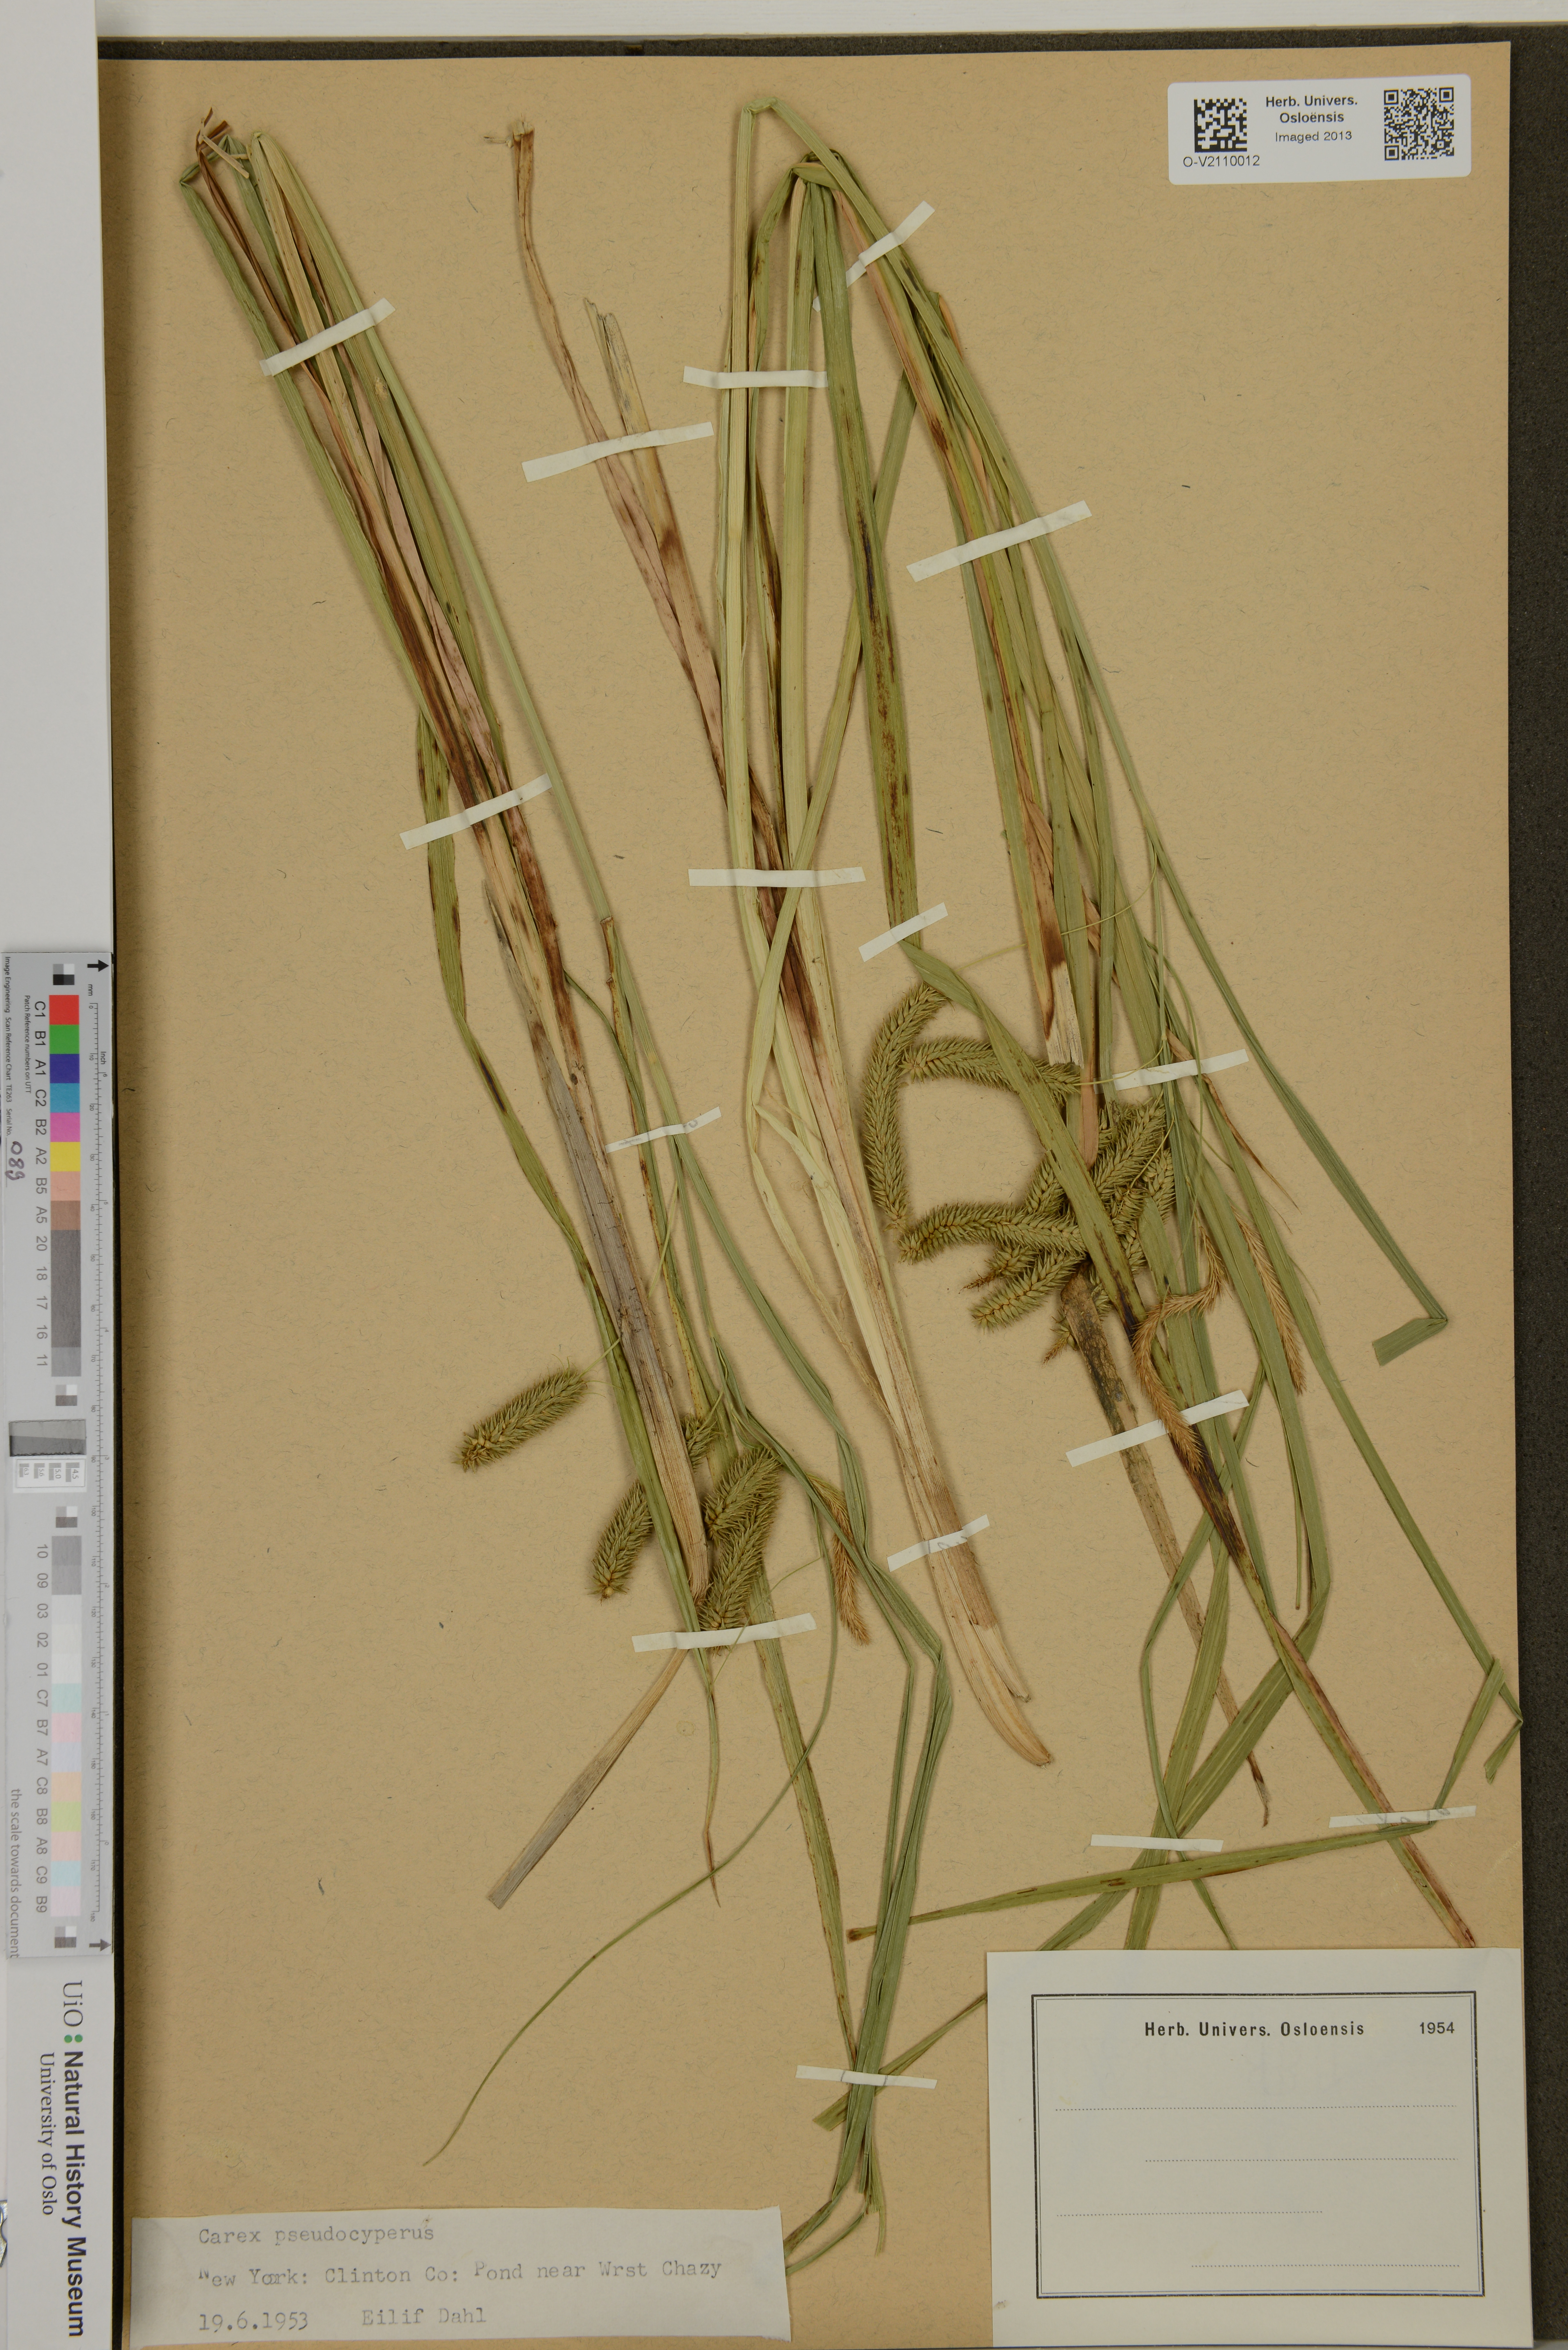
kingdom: Plantae
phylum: Tracheophyta
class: Liliopsida
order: Poales
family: Cyperaceae
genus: Carex
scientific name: Carex pseudocyperus
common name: Cyperus sedge
